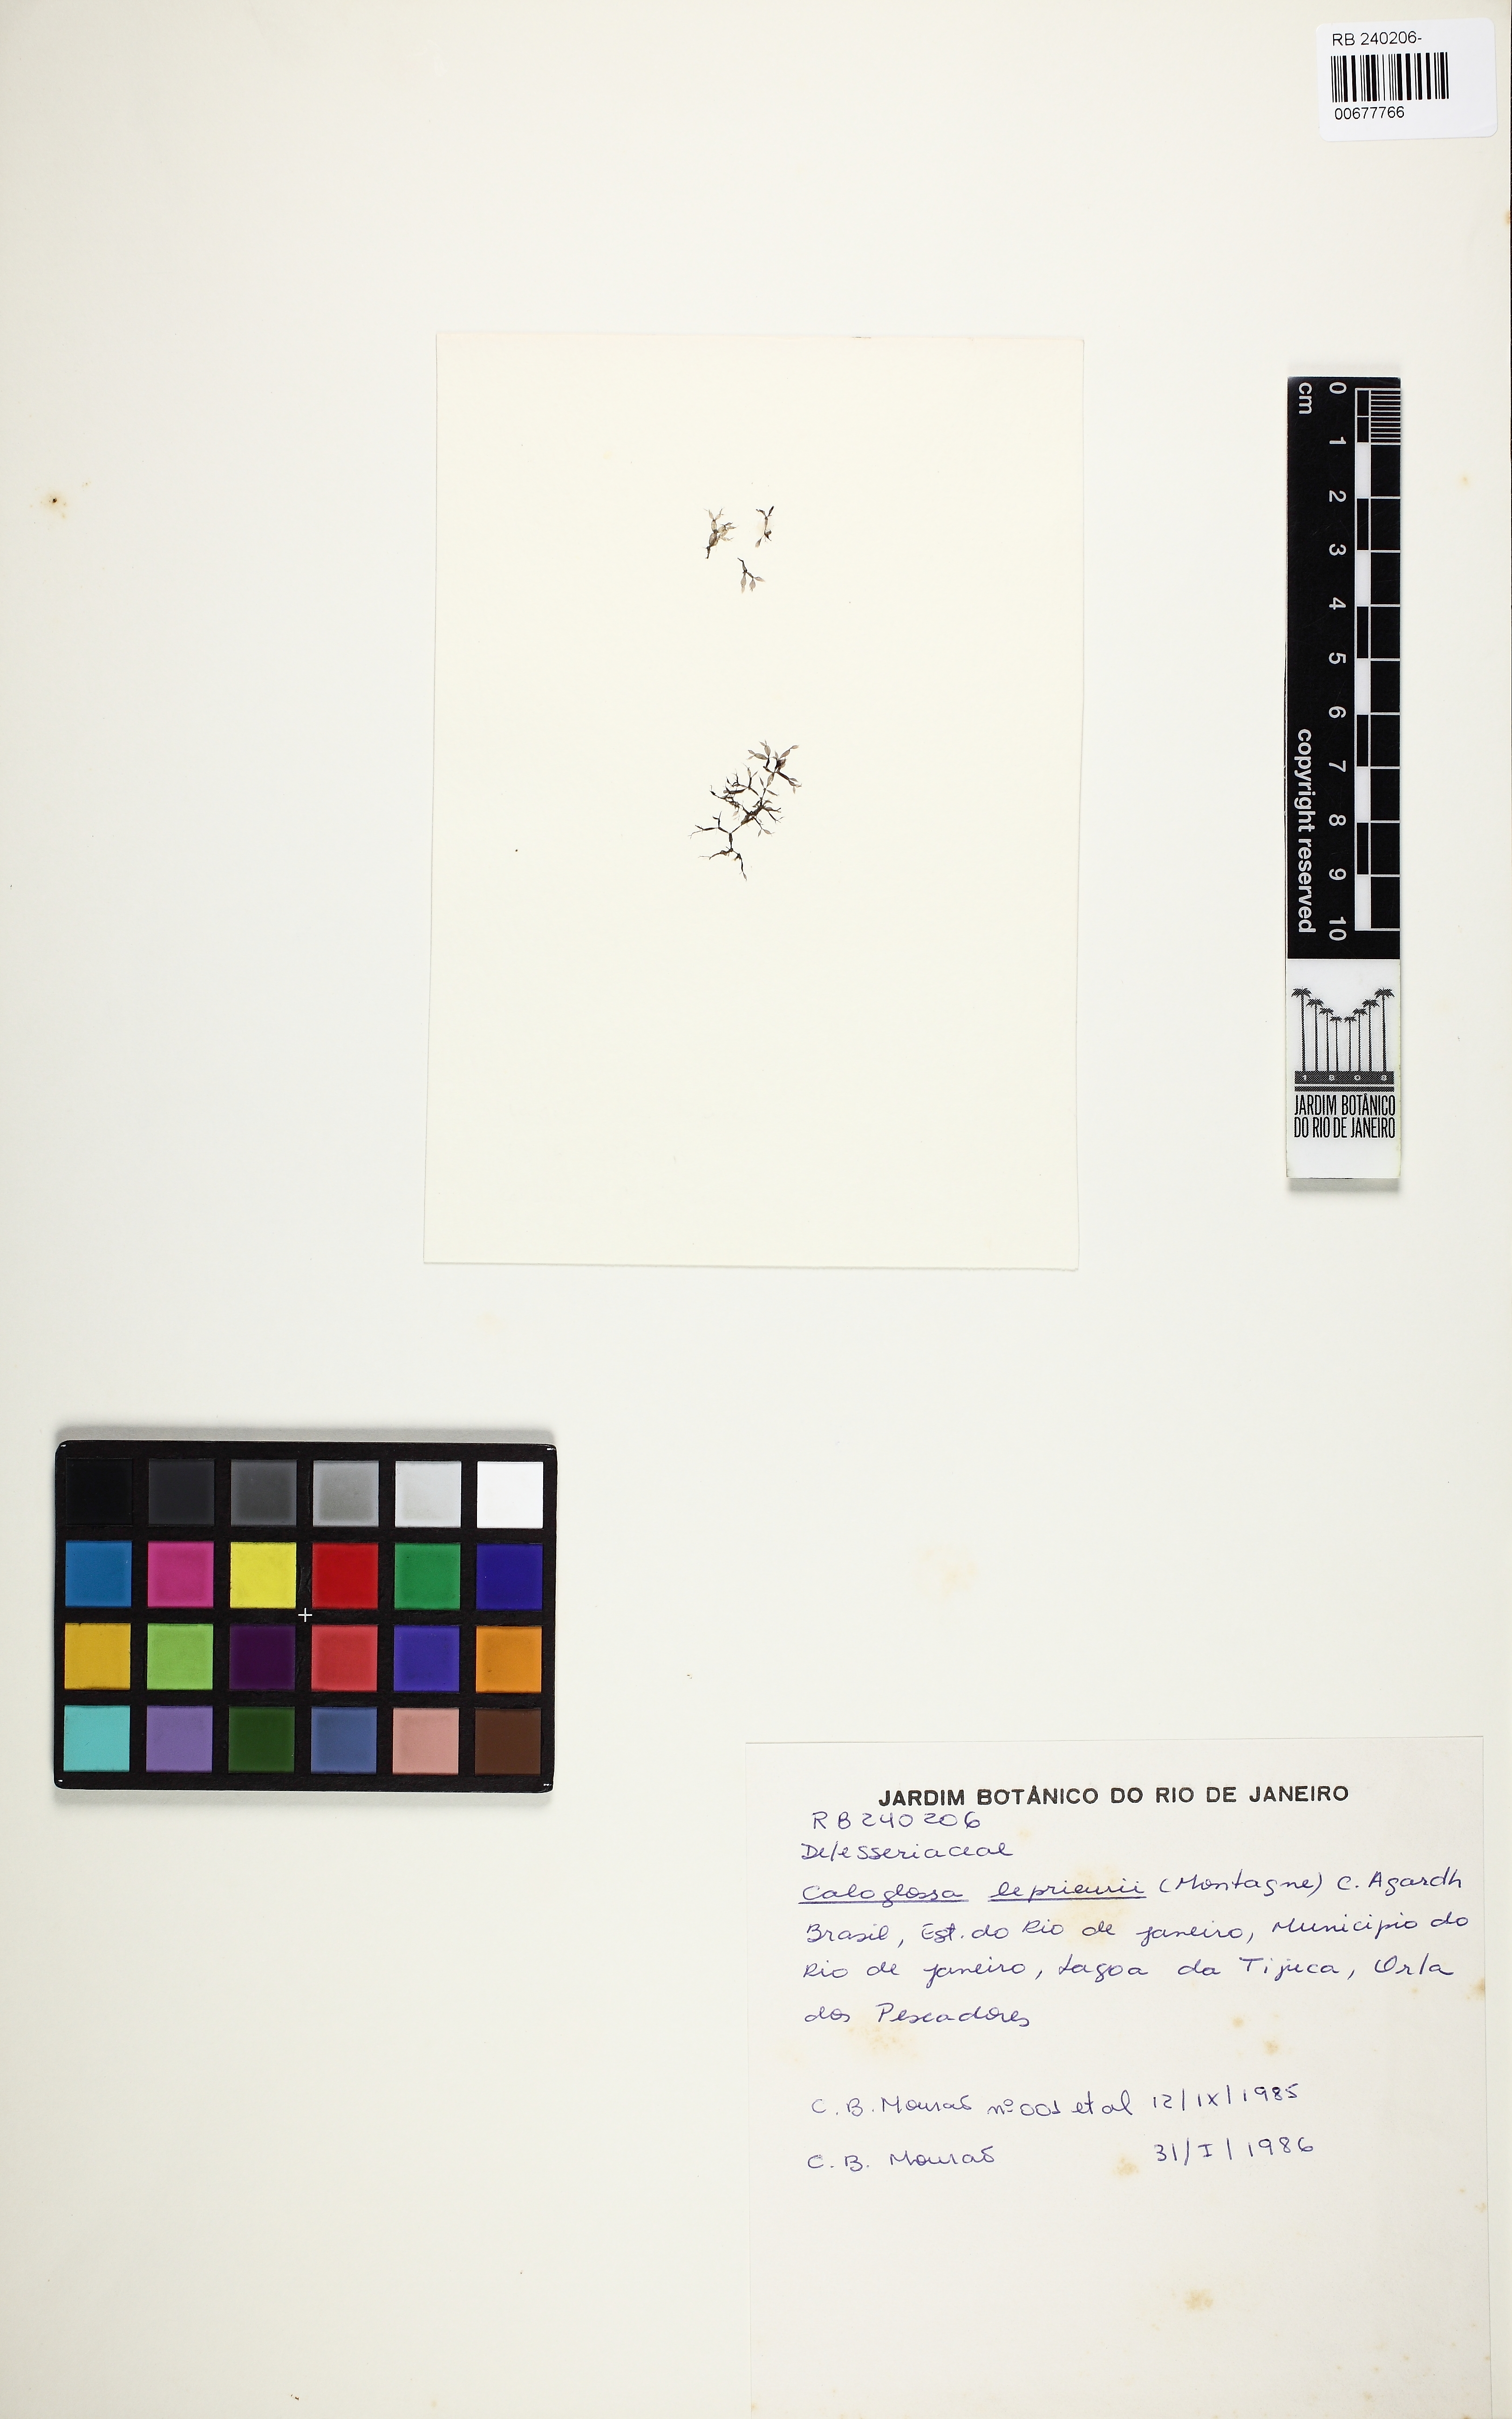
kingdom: Plantae
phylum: Rhodophyta
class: Florideophyceae
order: Ceramiales
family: Delesseriaceae
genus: Caloglossa
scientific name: Caloglossa ogasawaraensis
